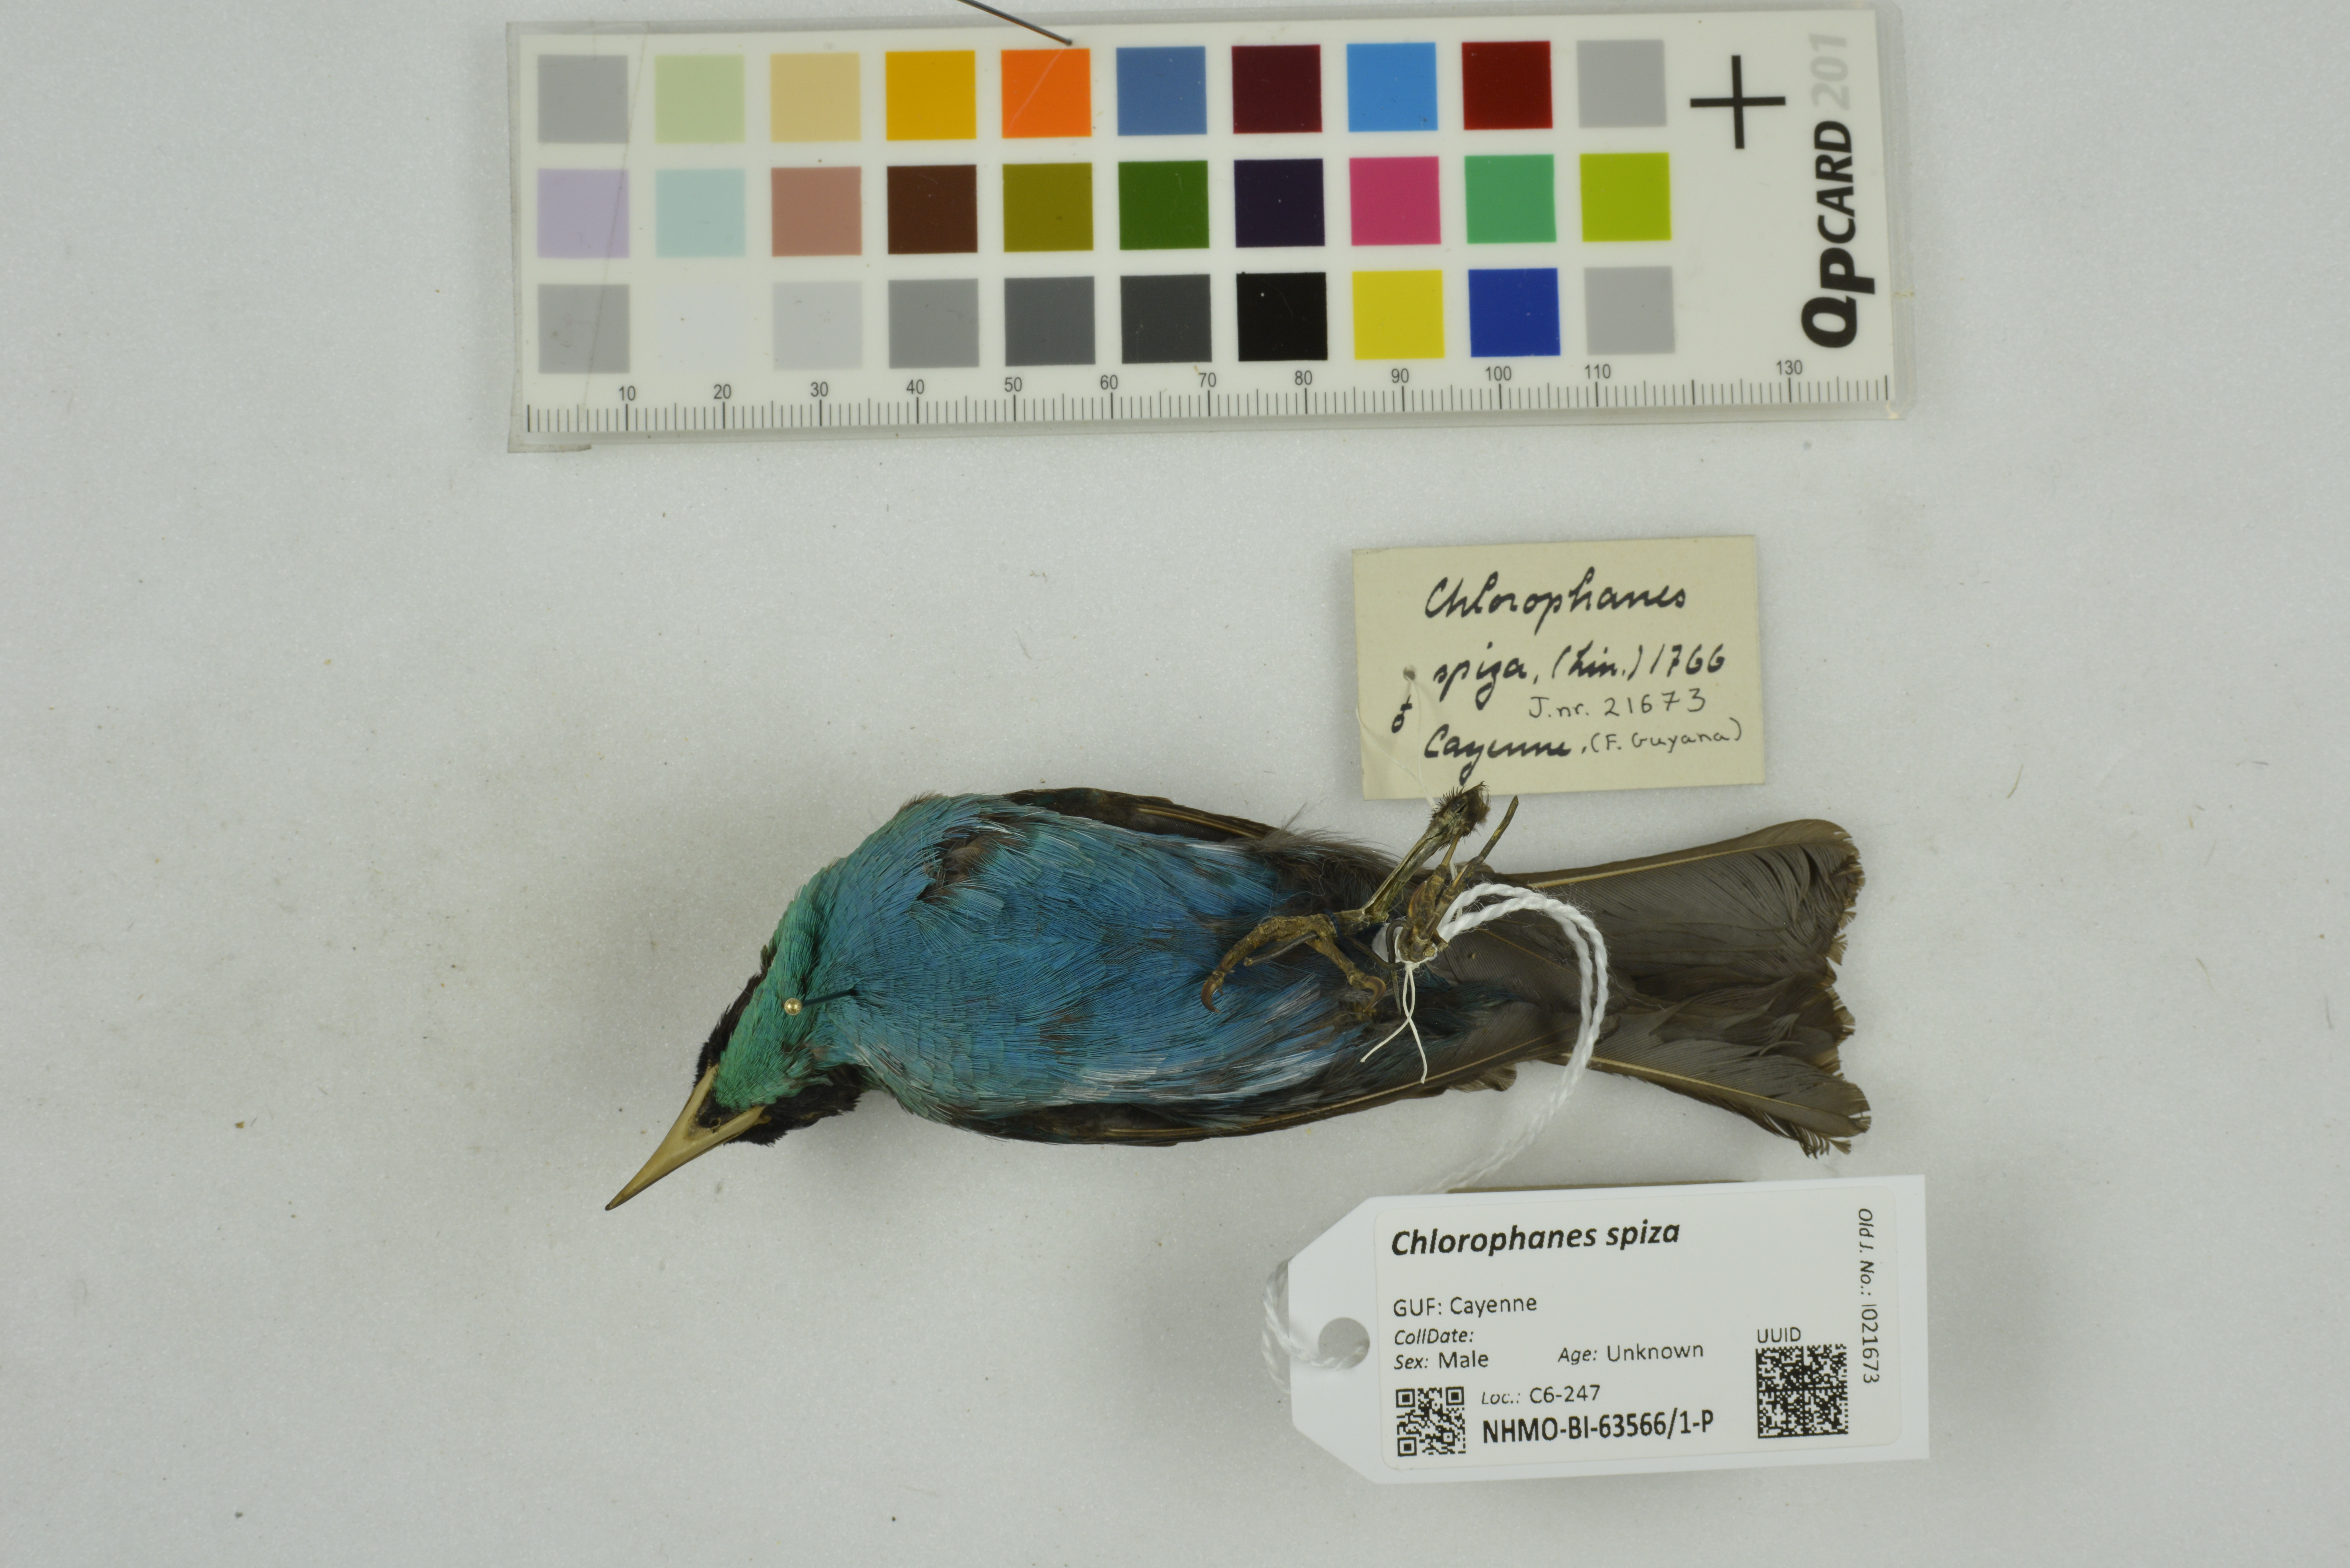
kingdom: Animalia
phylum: Chordata
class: Aves
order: Passeriformes
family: Thraupidae
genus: Chlorophanes
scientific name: Chlorophanes spiza
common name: Green honeycreeper
